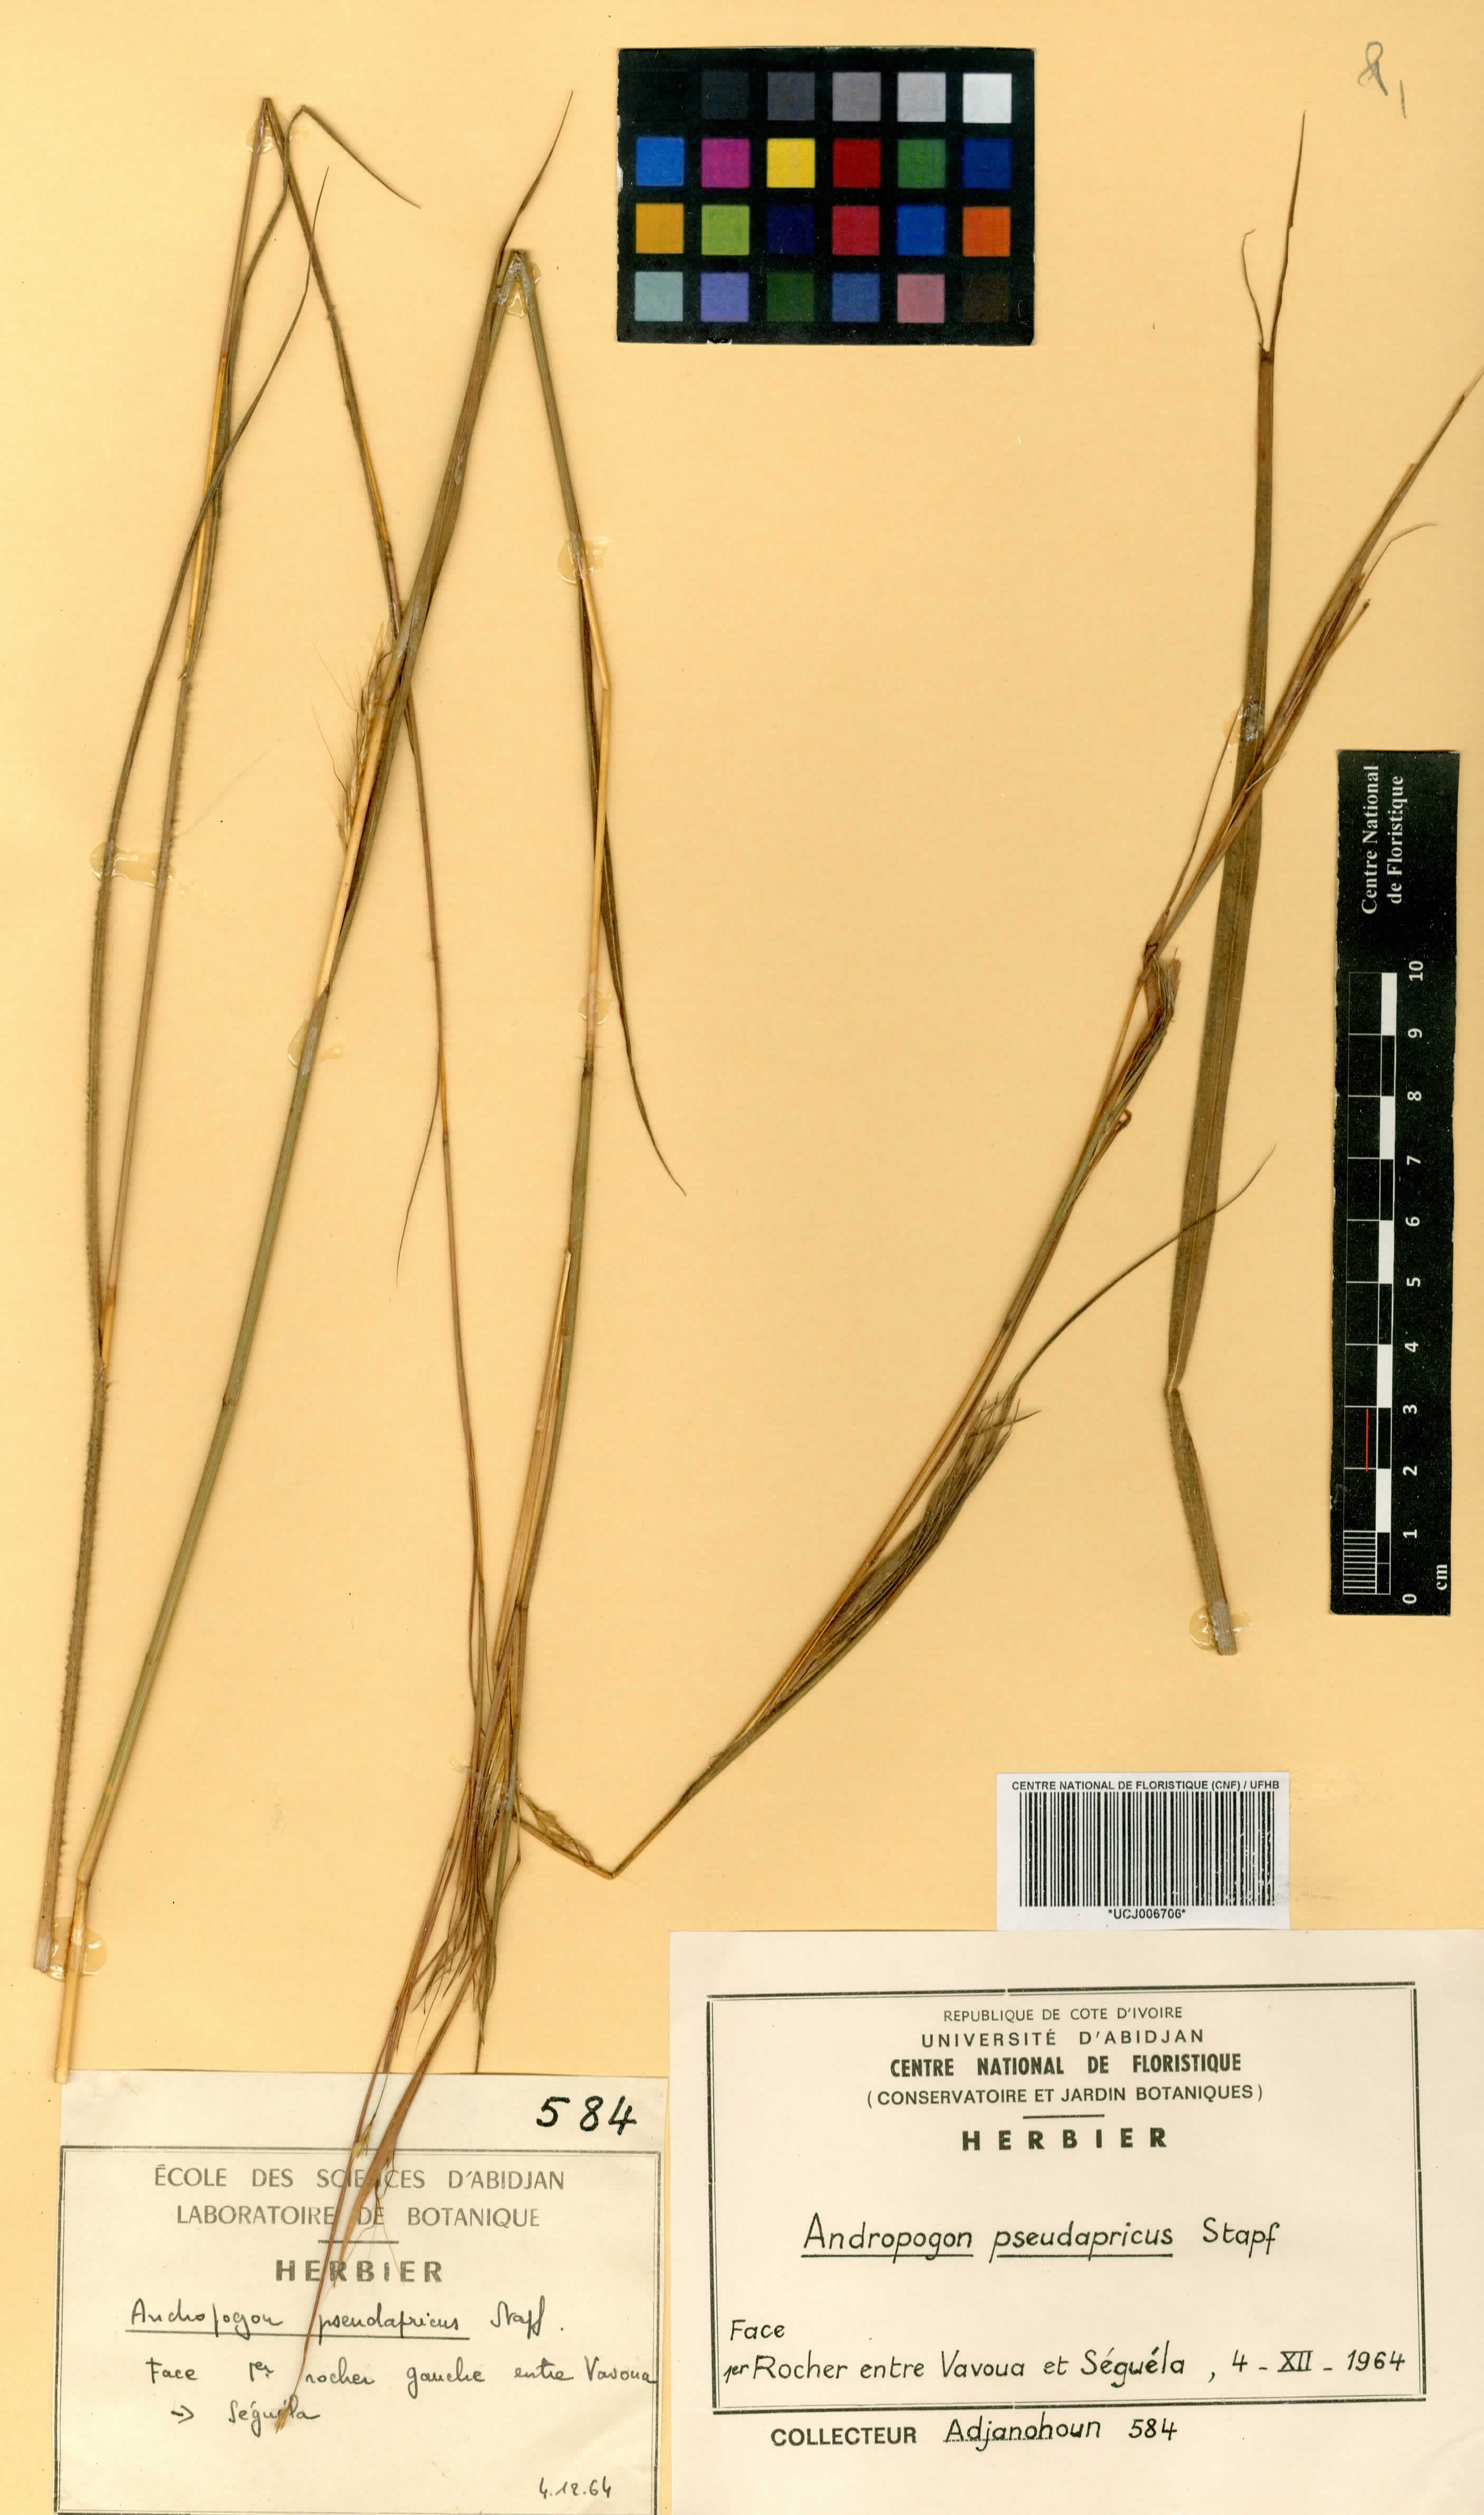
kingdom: Plantae
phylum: Tracheophyta
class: Liliopsida
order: Poales
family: Poaceae
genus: Andropogon
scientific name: Andropogon pseudapricus
